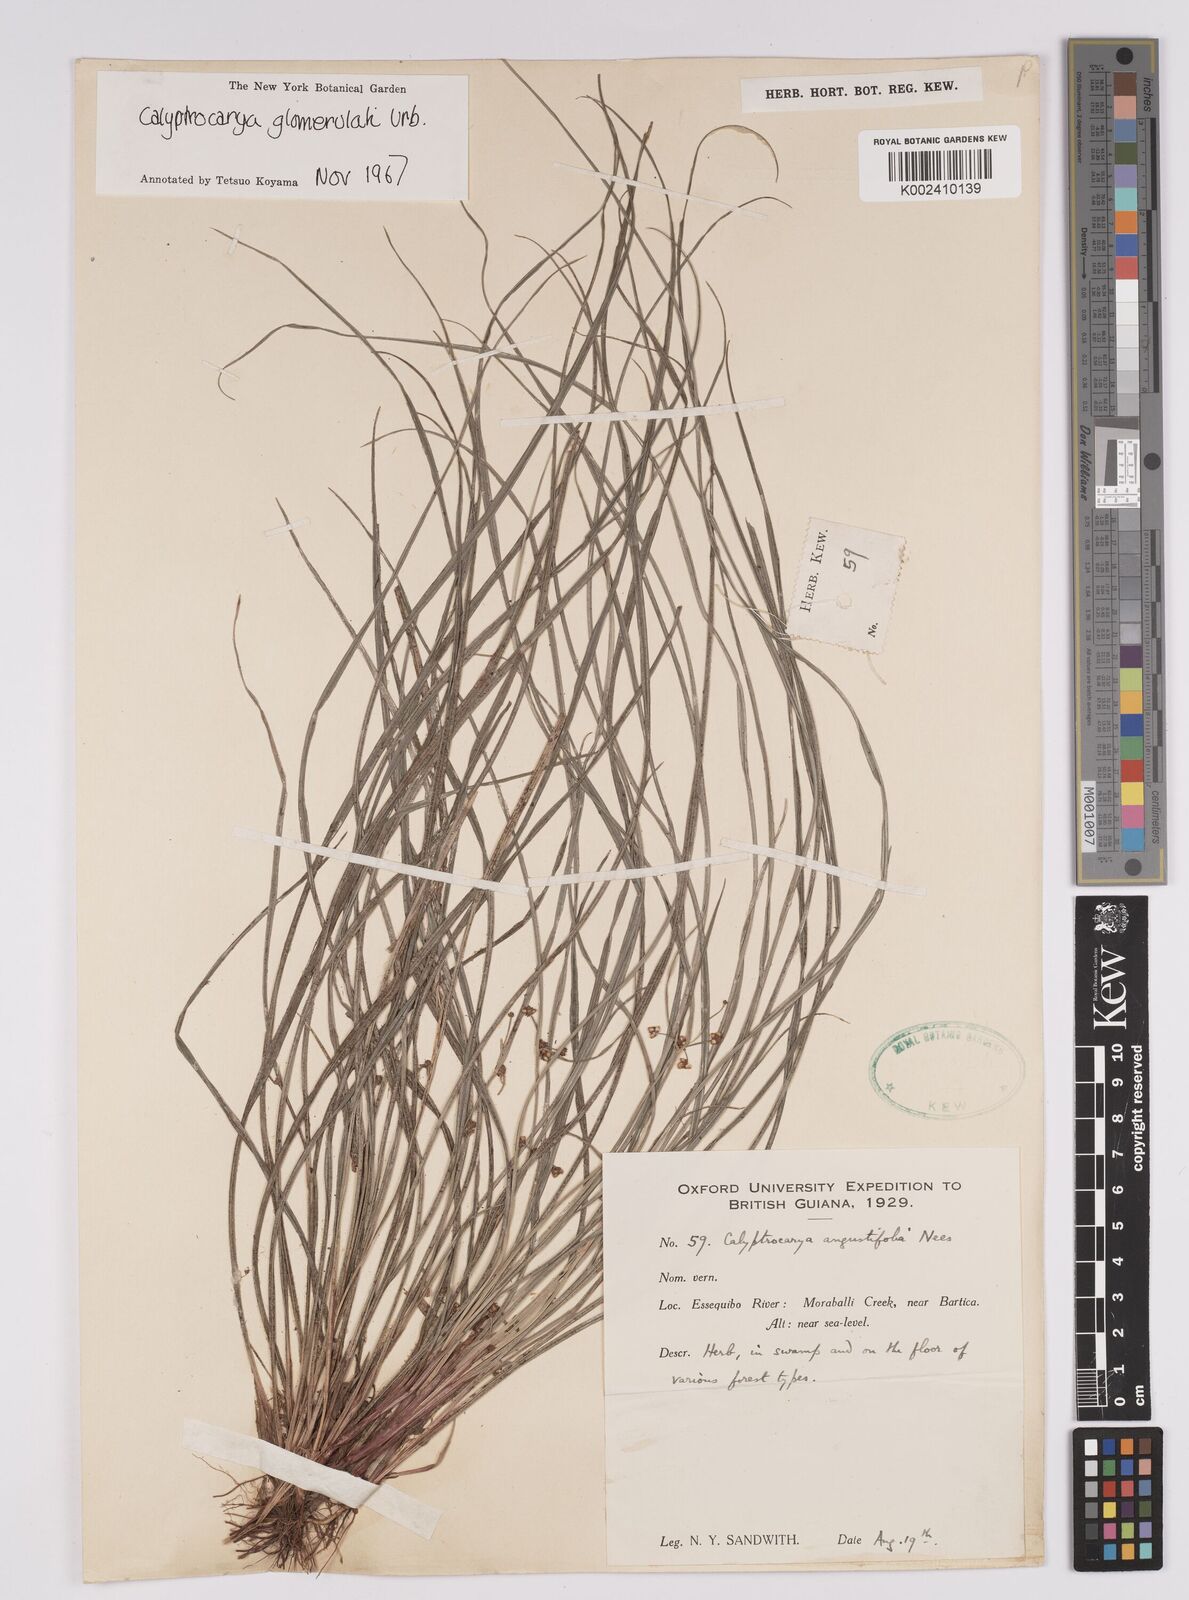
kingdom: Plantae
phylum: Tracheophyta
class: Liliopsida
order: Poales
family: Cyperaceae
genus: Calyptrocarya
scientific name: Calyptrocarya glomerulata
